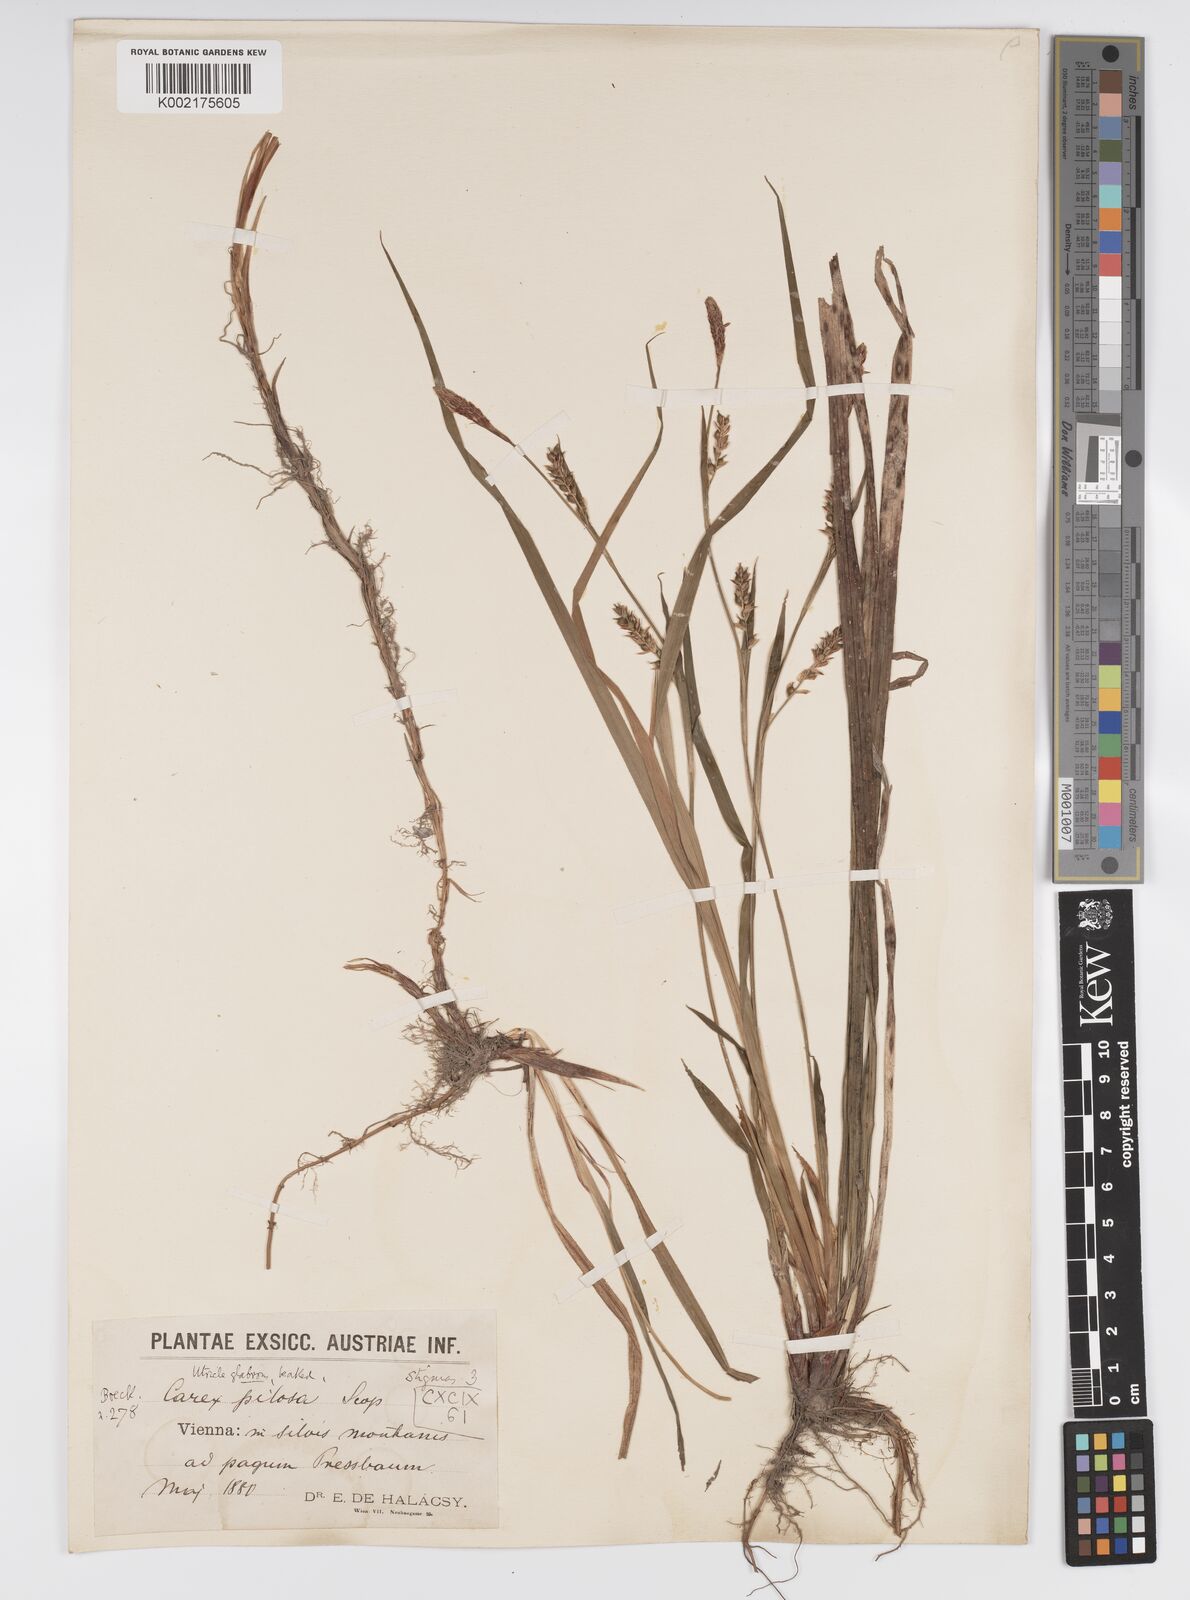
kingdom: Plantae
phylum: Tracheophyta
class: Liliopsida
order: Poales
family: Cyperaceae
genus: Carex
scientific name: Carex pilosa
